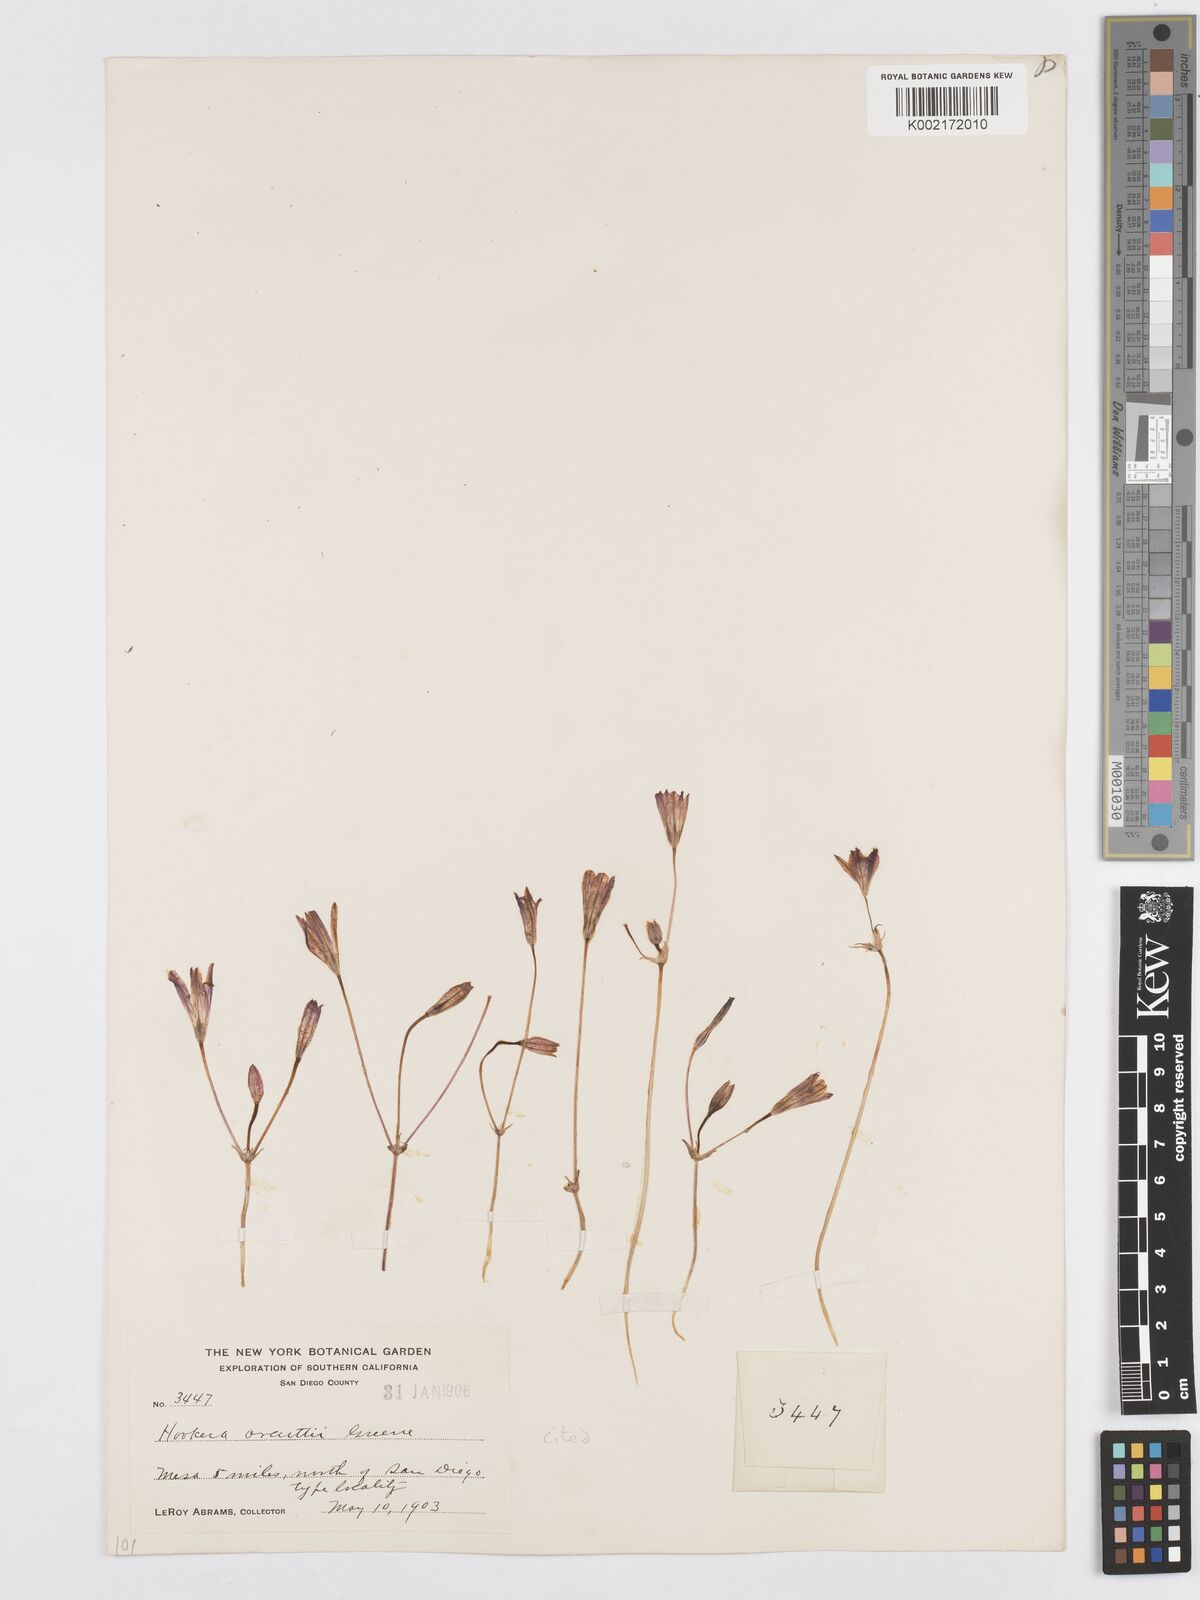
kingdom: Plantae
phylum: Tracheophyta
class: Liliopsida
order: Asparagales
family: Asparagaceae
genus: Brodiaea
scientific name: Brodiaea orcuttii
